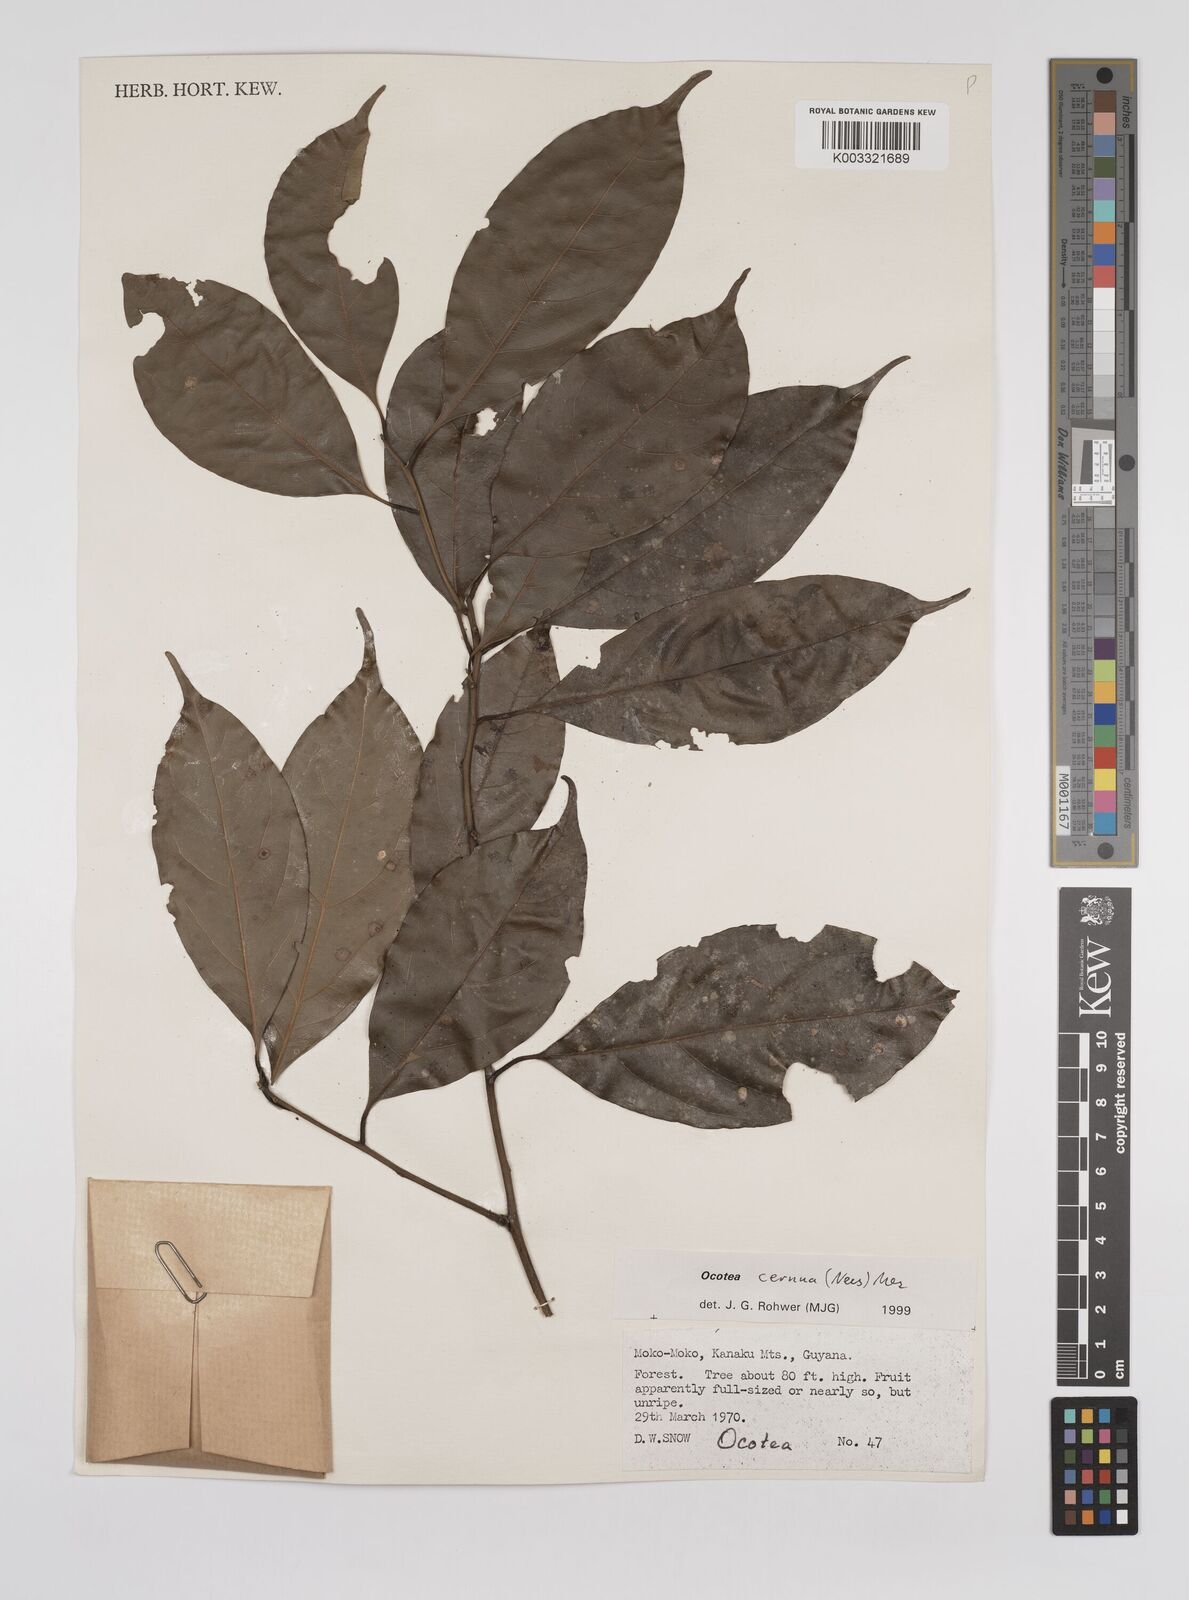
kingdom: Plantae
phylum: Tracheophyta
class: Magnoliopsida
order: Laurales
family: Lauraceae
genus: Ocotea
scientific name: Ocotea leptobotra
